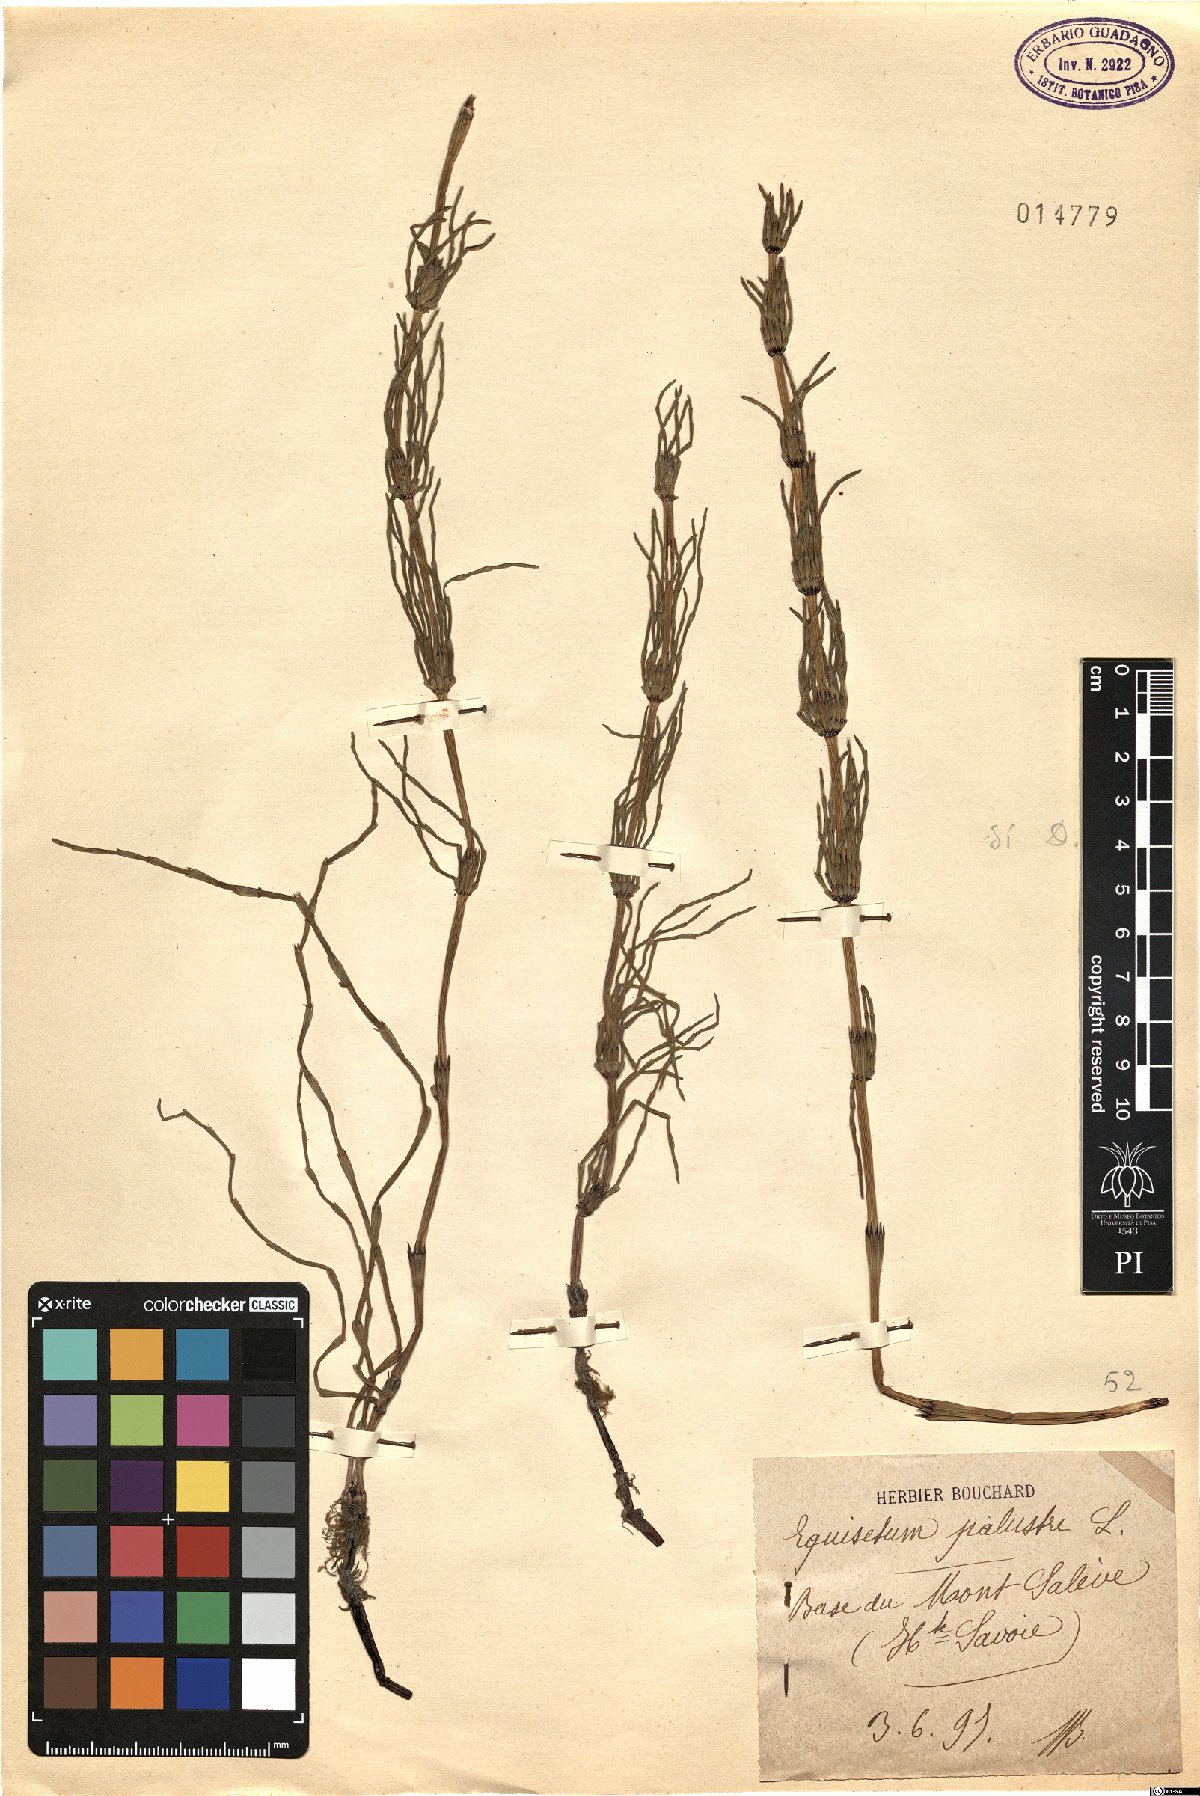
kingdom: Plantae
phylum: Tracheophyta
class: Polypodiopsida
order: Equisetales
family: Equisetaceae
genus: Equisetum
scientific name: Equisetum palustre
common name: Marsh horsetail
